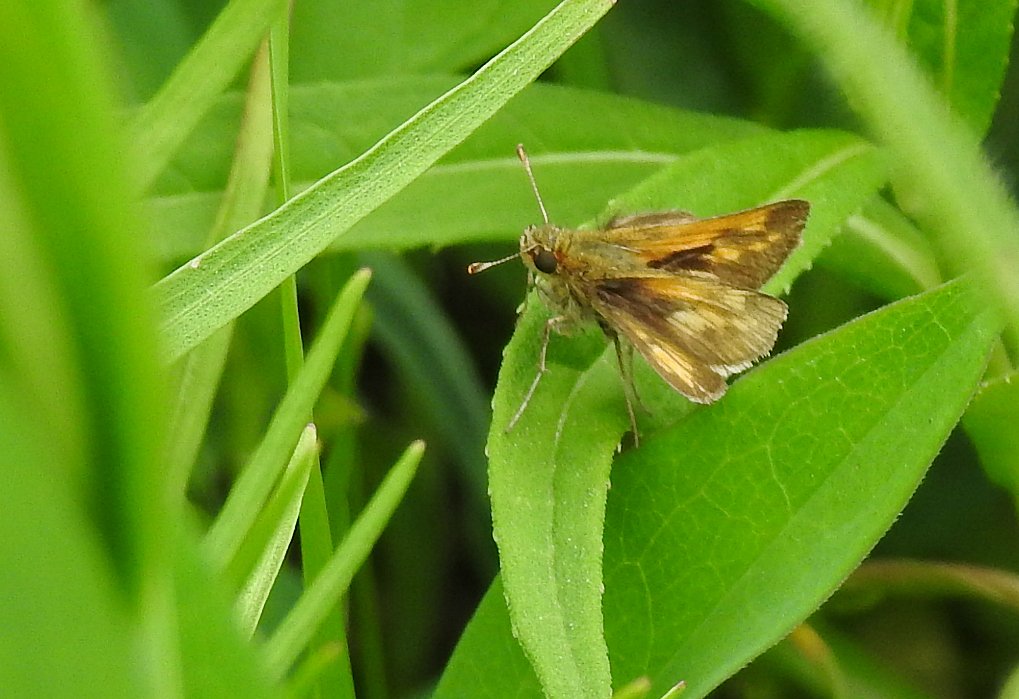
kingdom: Animalia
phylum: Arthropoda
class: Insecta
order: Lepidoptera
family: Hesperiidae
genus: Polites
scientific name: Polites coras
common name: Peck's Skipper
